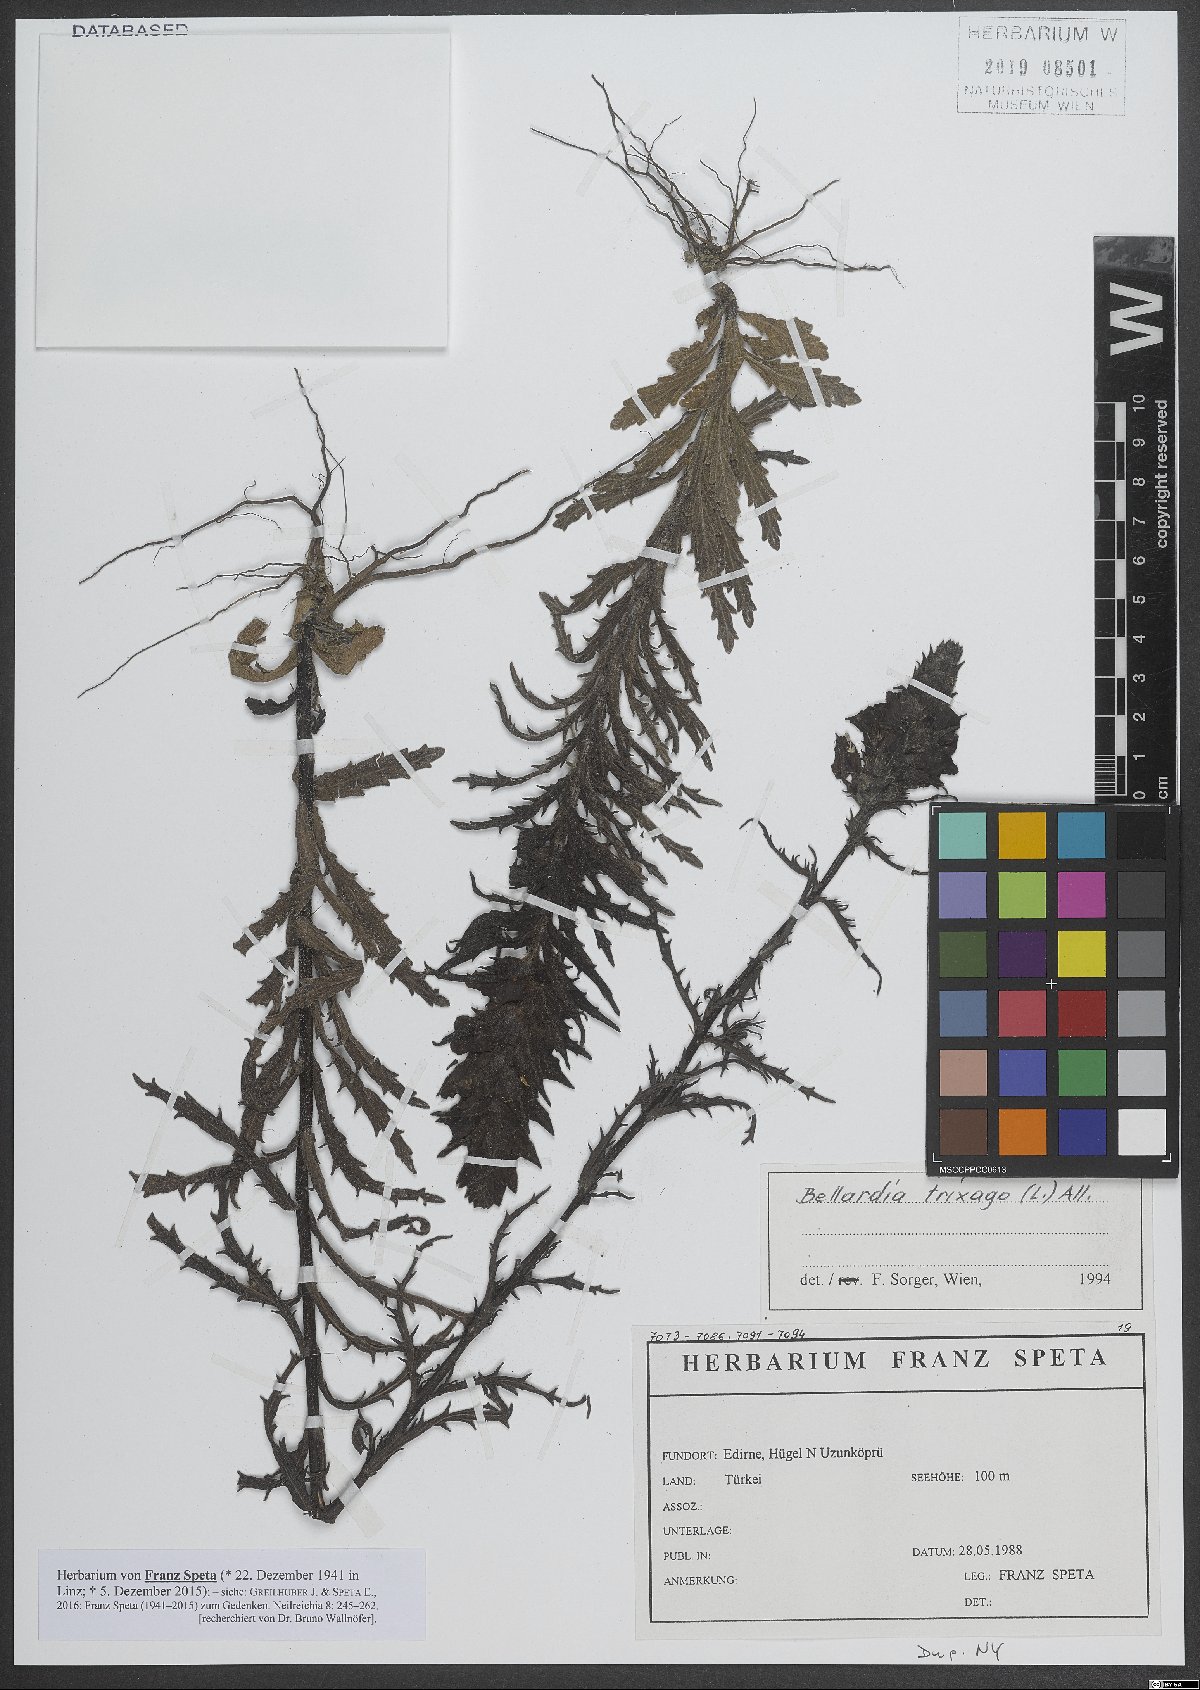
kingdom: Plantae
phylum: Tracheophyta
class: Magnoliopsida
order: Lamiales
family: Orobanchaceae
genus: Bellardia
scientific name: Bellardia trixago
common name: Mediterranean lineseed
